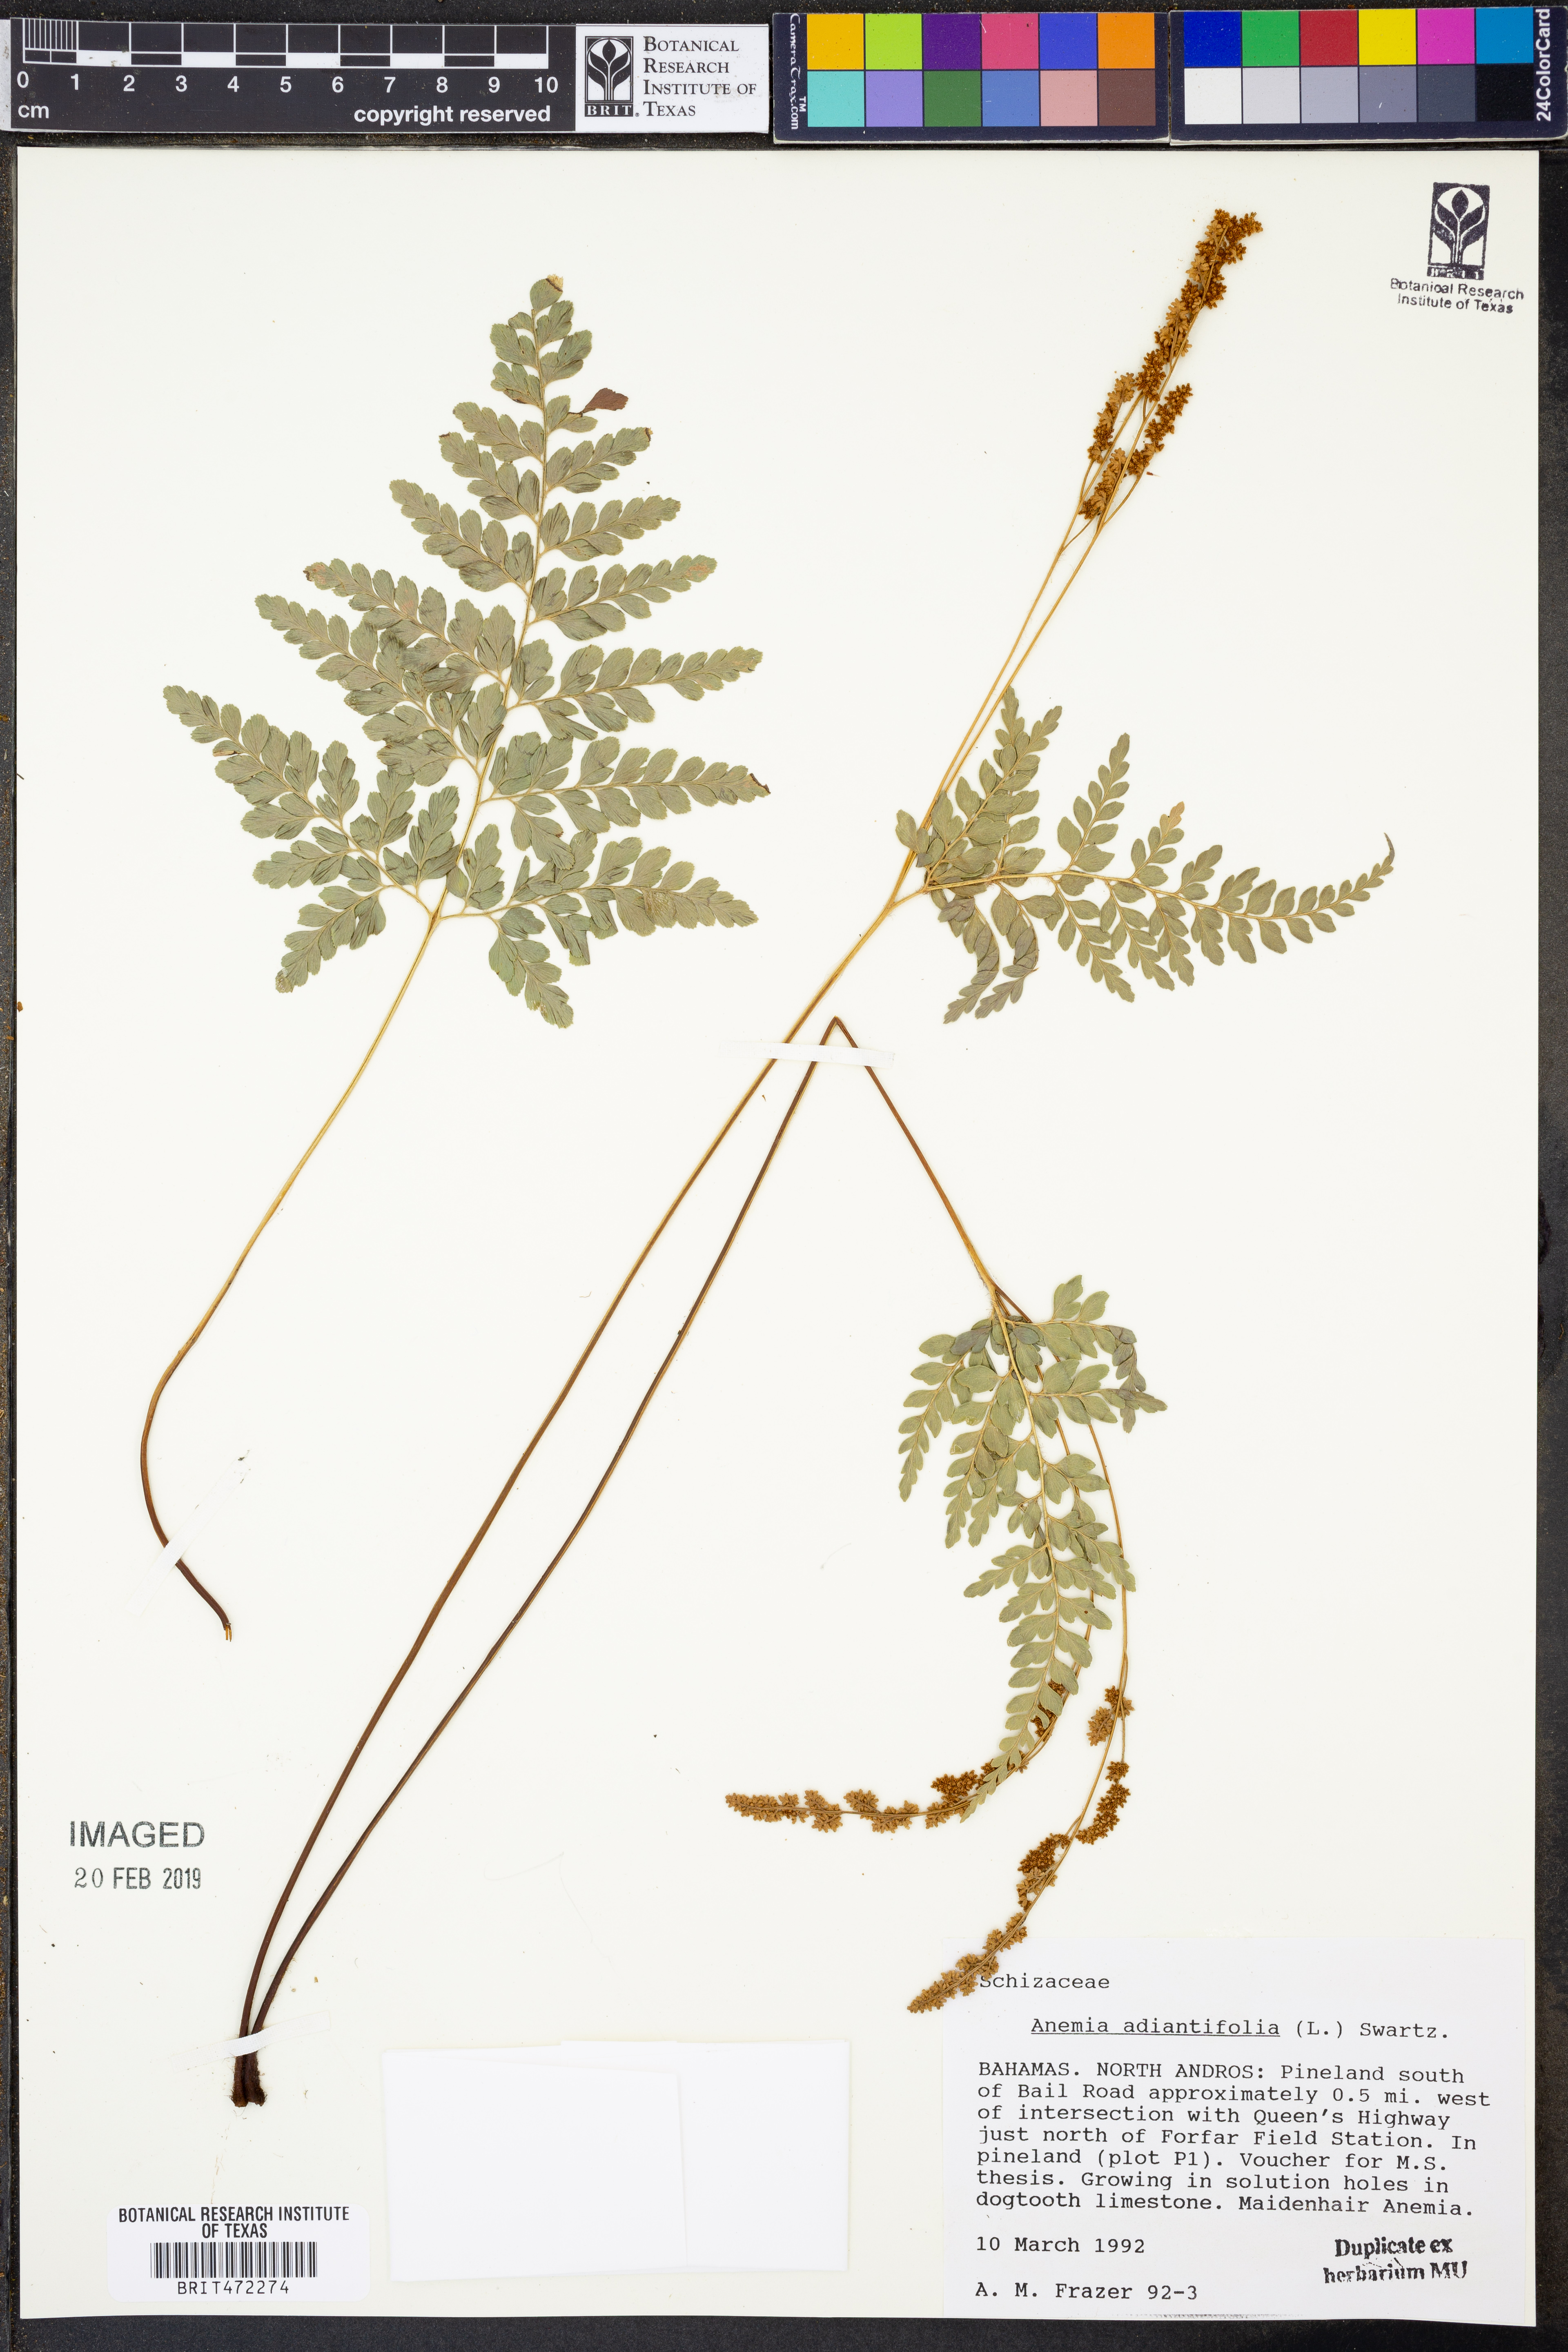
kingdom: Plantae
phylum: Tracheophyta
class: Polypodiopsida
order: Schizaeales
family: Anemiaceae
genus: Anemia
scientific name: Anemia adiantifolia
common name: Pine fern
